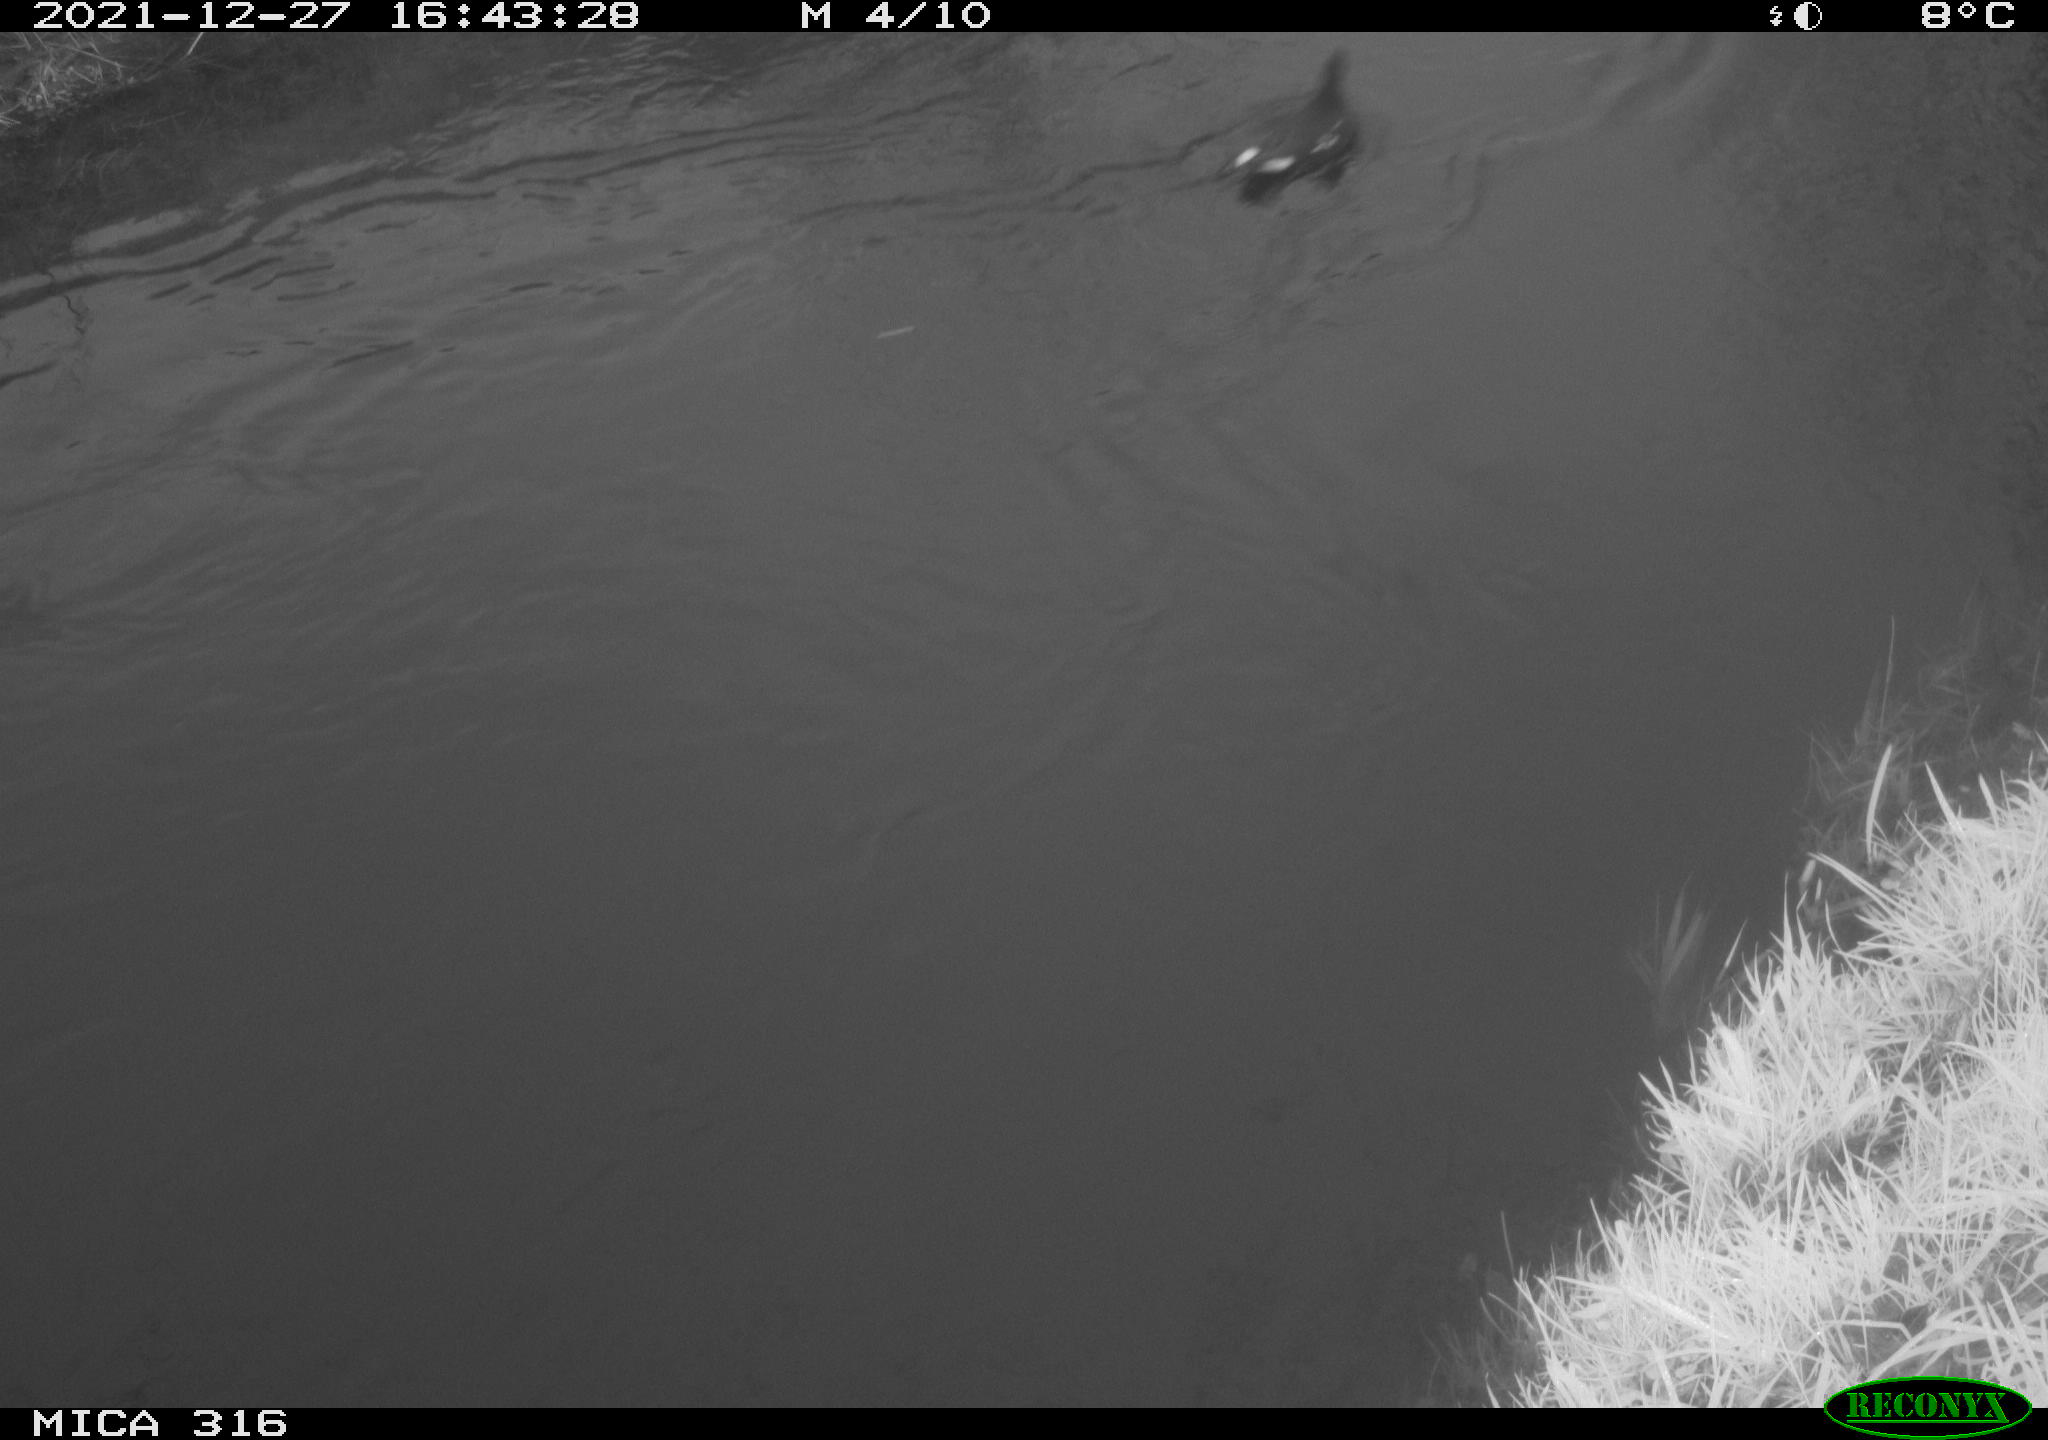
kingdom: Animalia
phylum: Chordata
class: Aves
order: Gruiformes
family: Rallidae
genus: Gallinula
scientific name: Gallinula chloropus
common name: Common moorhen
